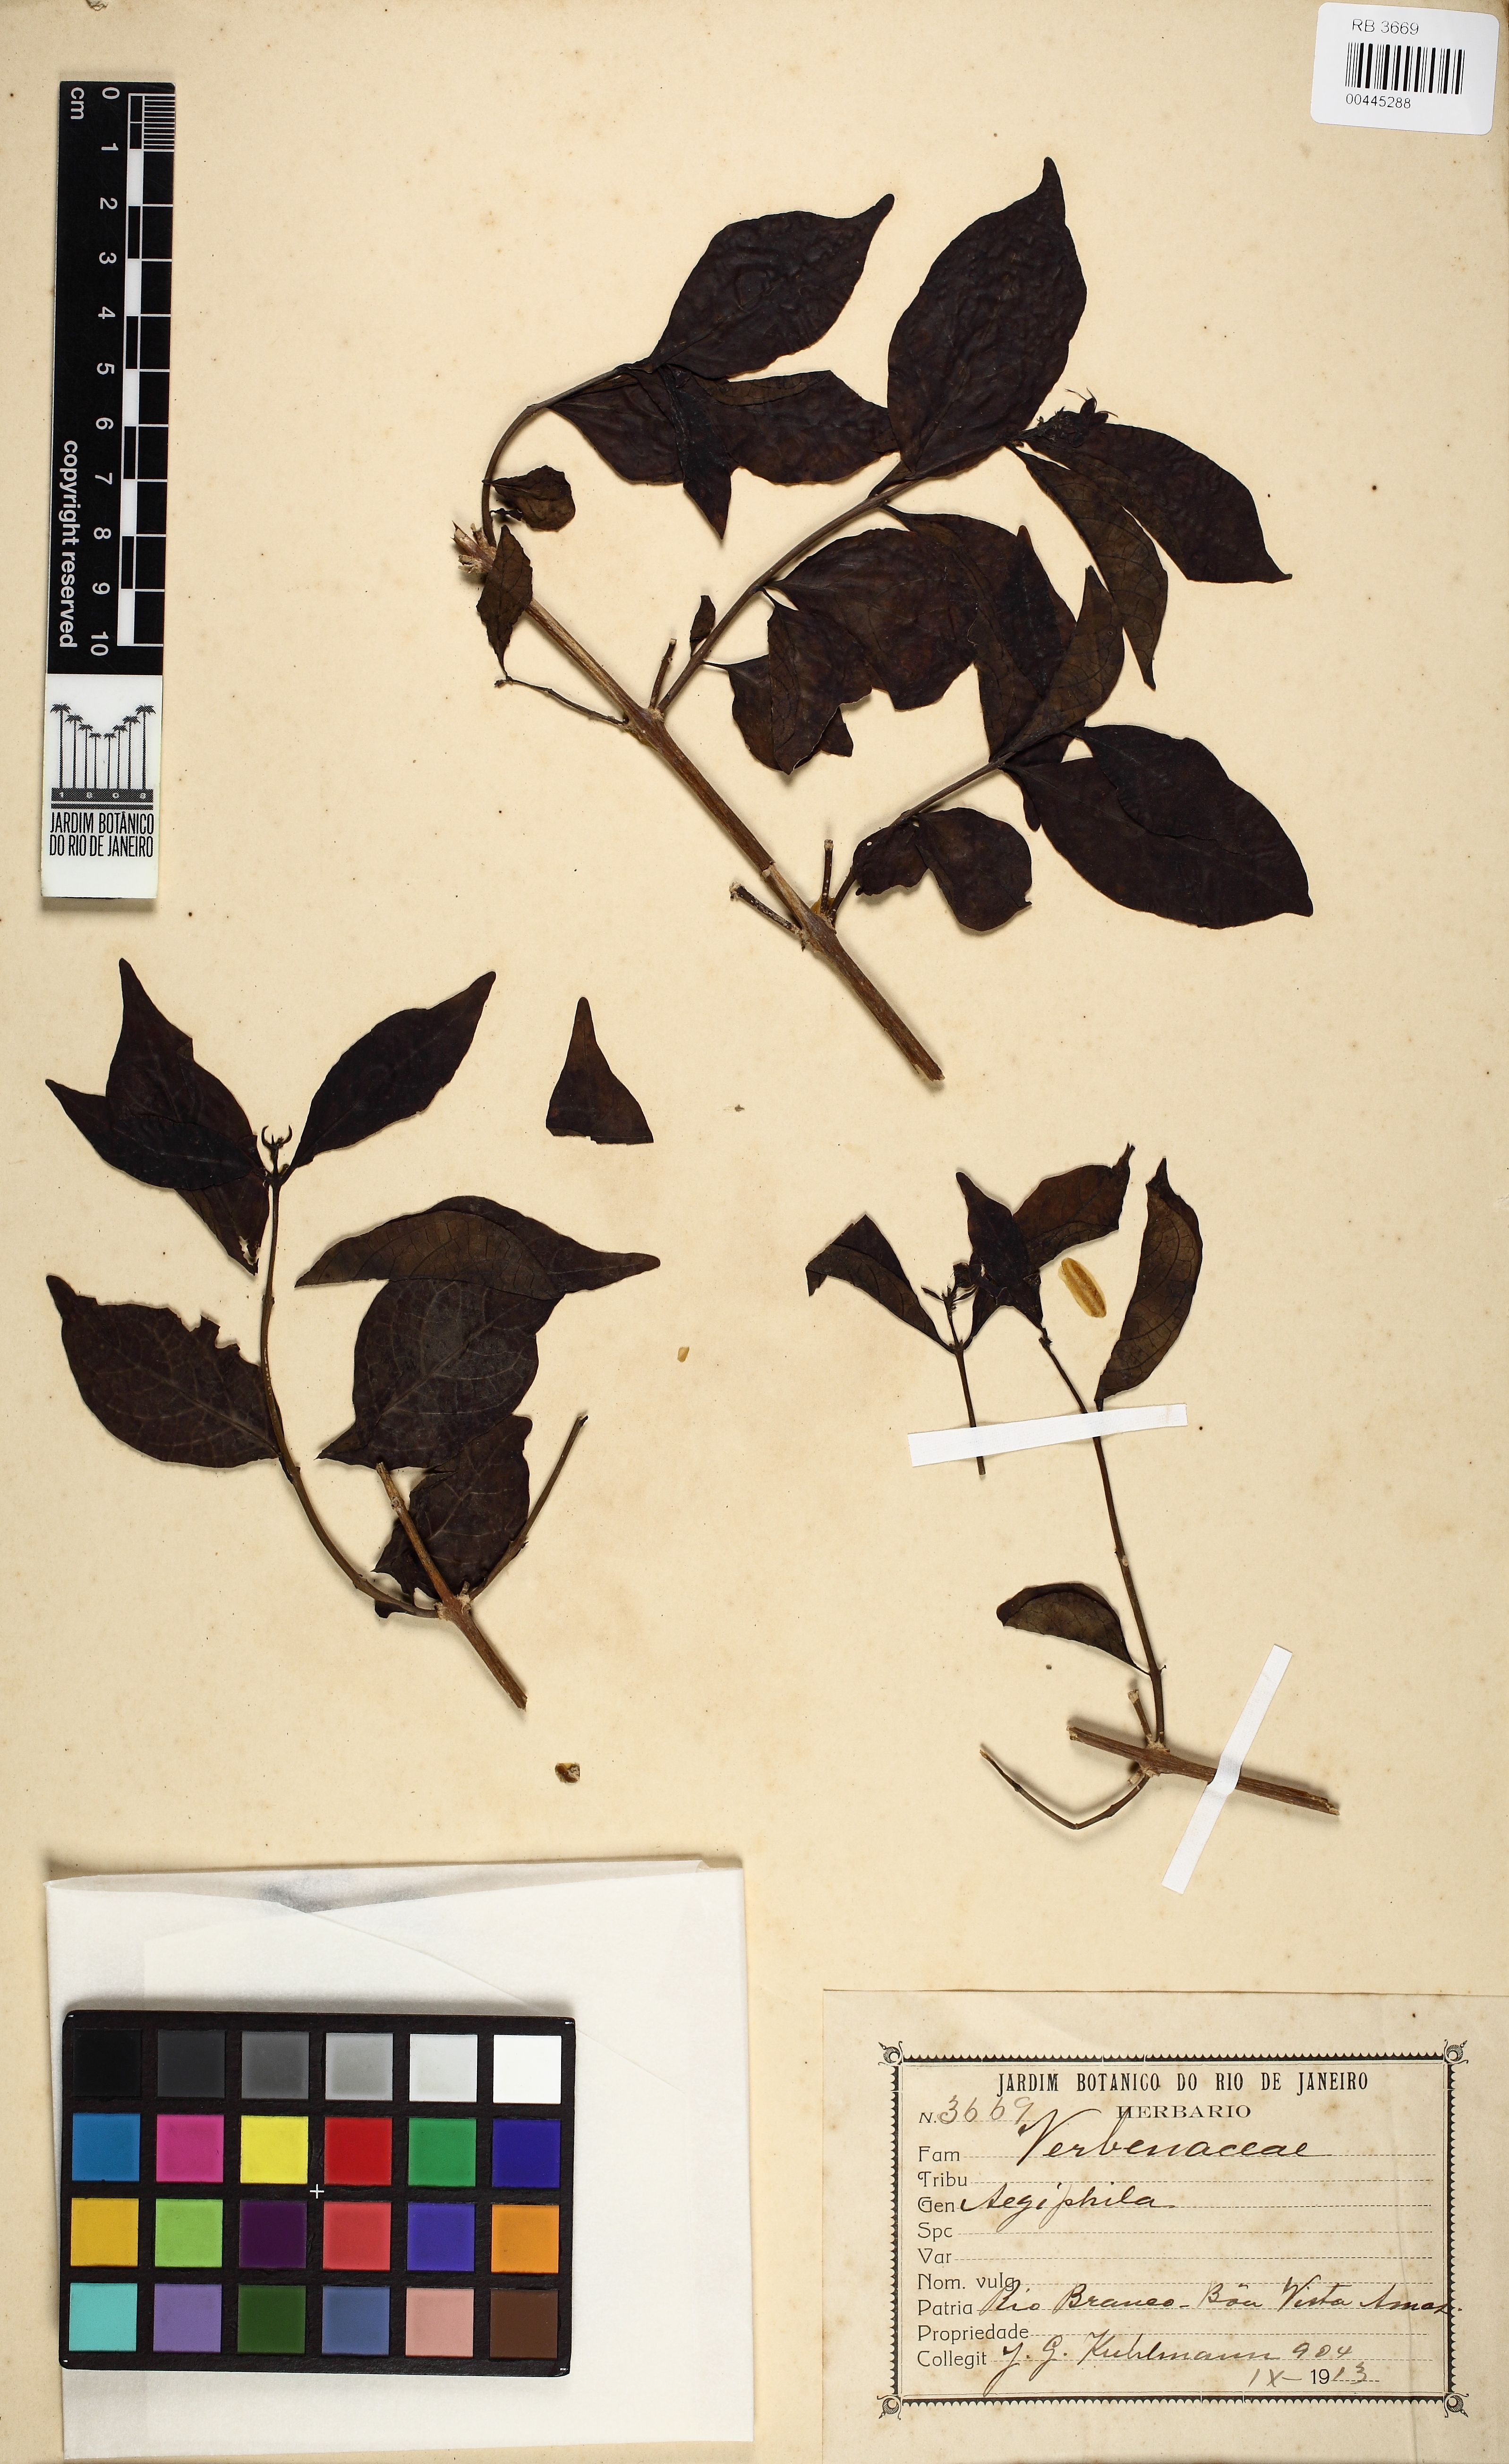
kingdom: Plantae
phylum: Tracheophyta
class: Magnoliopsida
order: Lamiales
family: Lamiaceae
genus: Aegiphila
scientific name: Aegiphila
